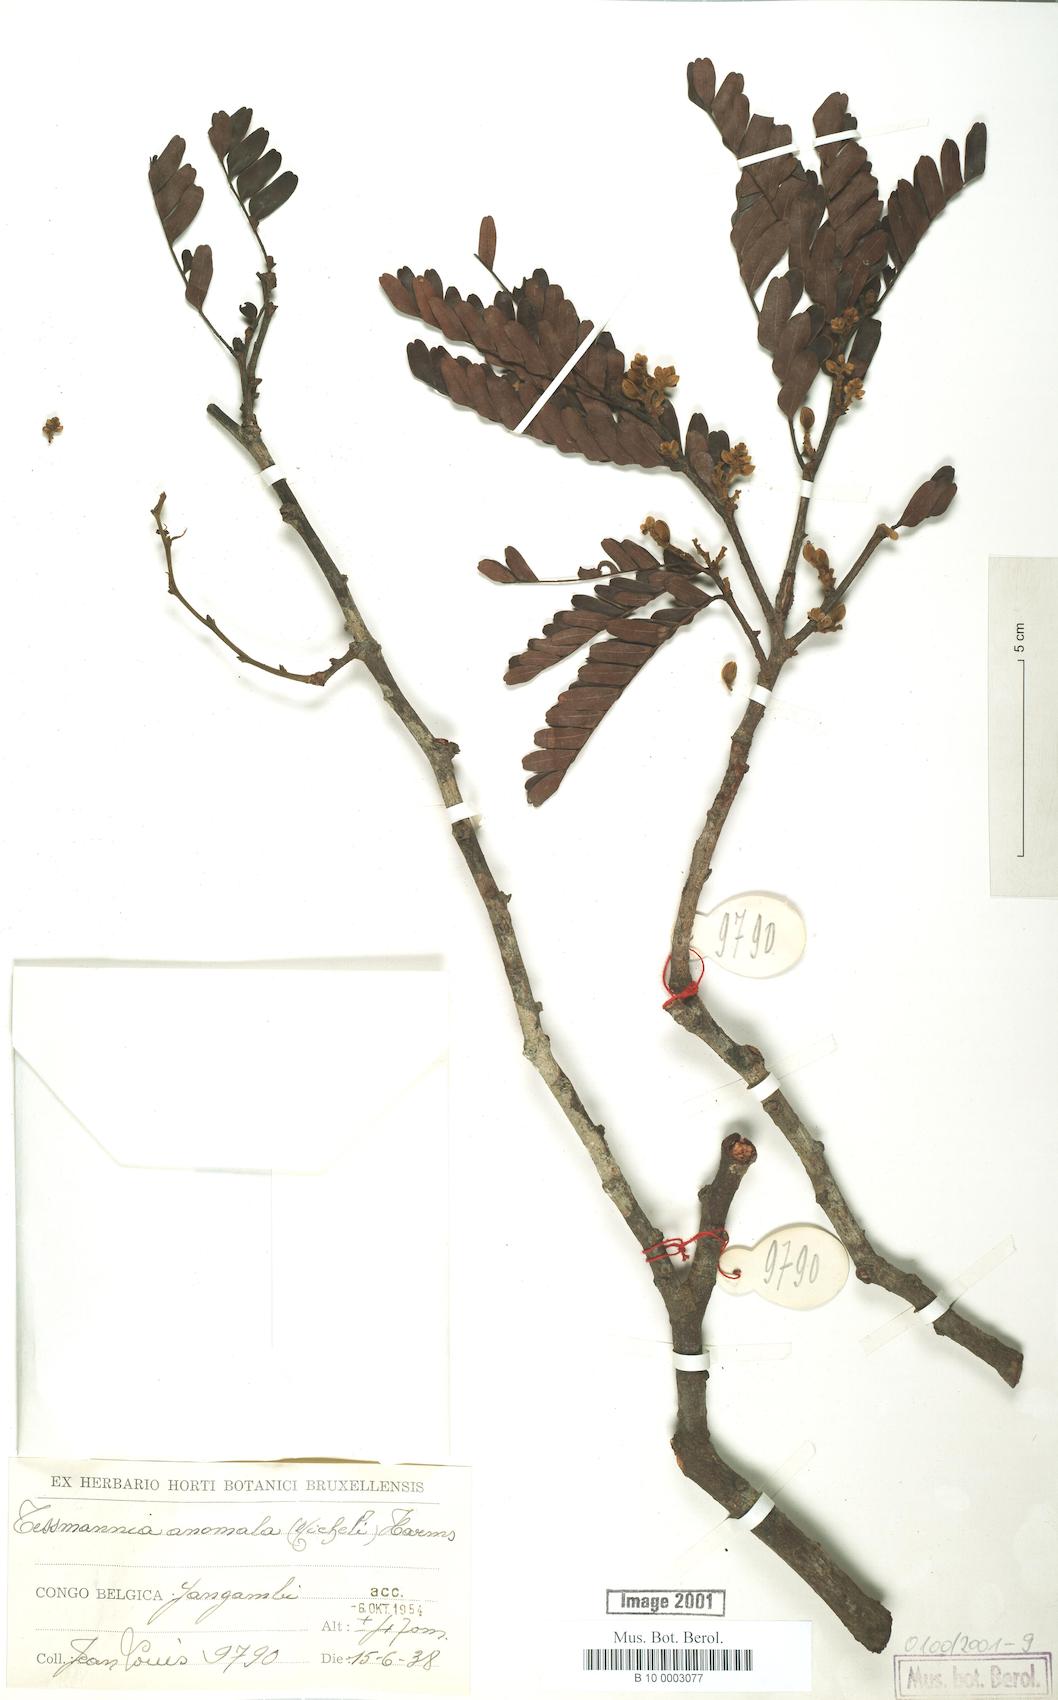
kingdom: Plantae
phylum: Tracheophyta
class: Magnoliopsida
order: Fabales
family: Fabaceae
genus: Tessmannia
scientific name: Tessmannia anomala
